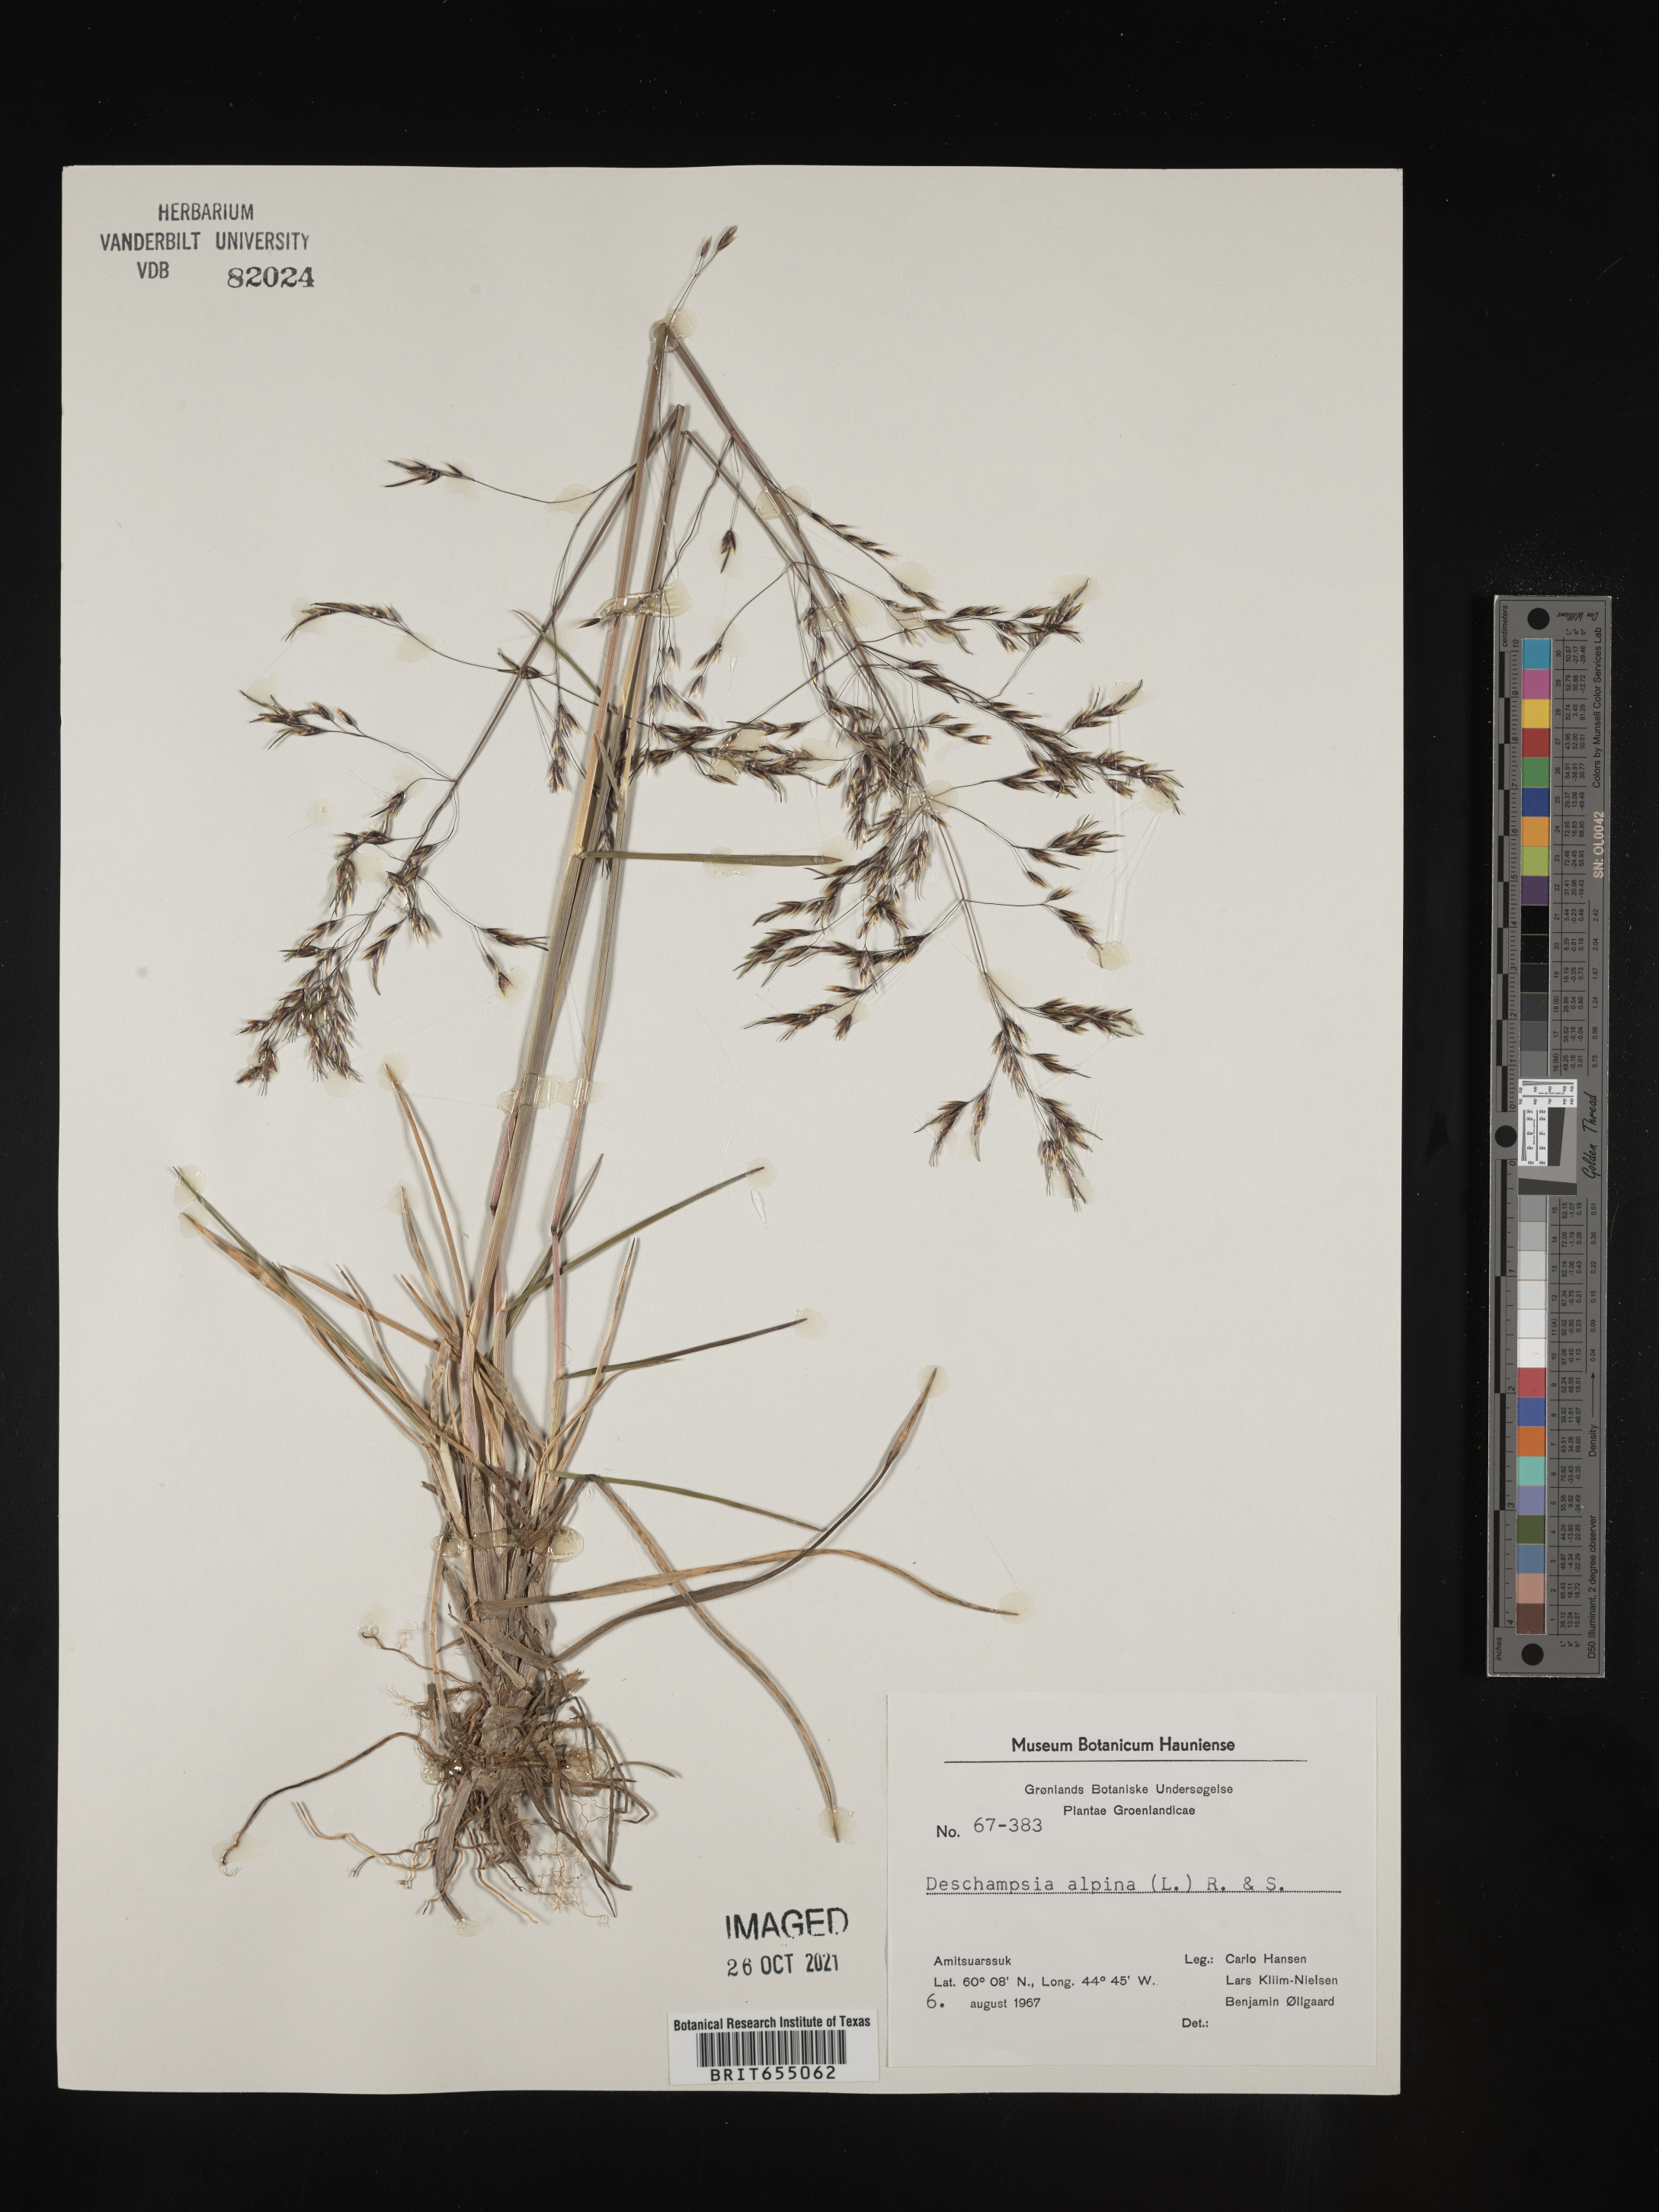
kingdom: Plantae
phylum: Tracheophyta
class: Liliopsida
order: Poales
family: Poaceae
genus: Deschampsia
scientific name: Deschampsia
